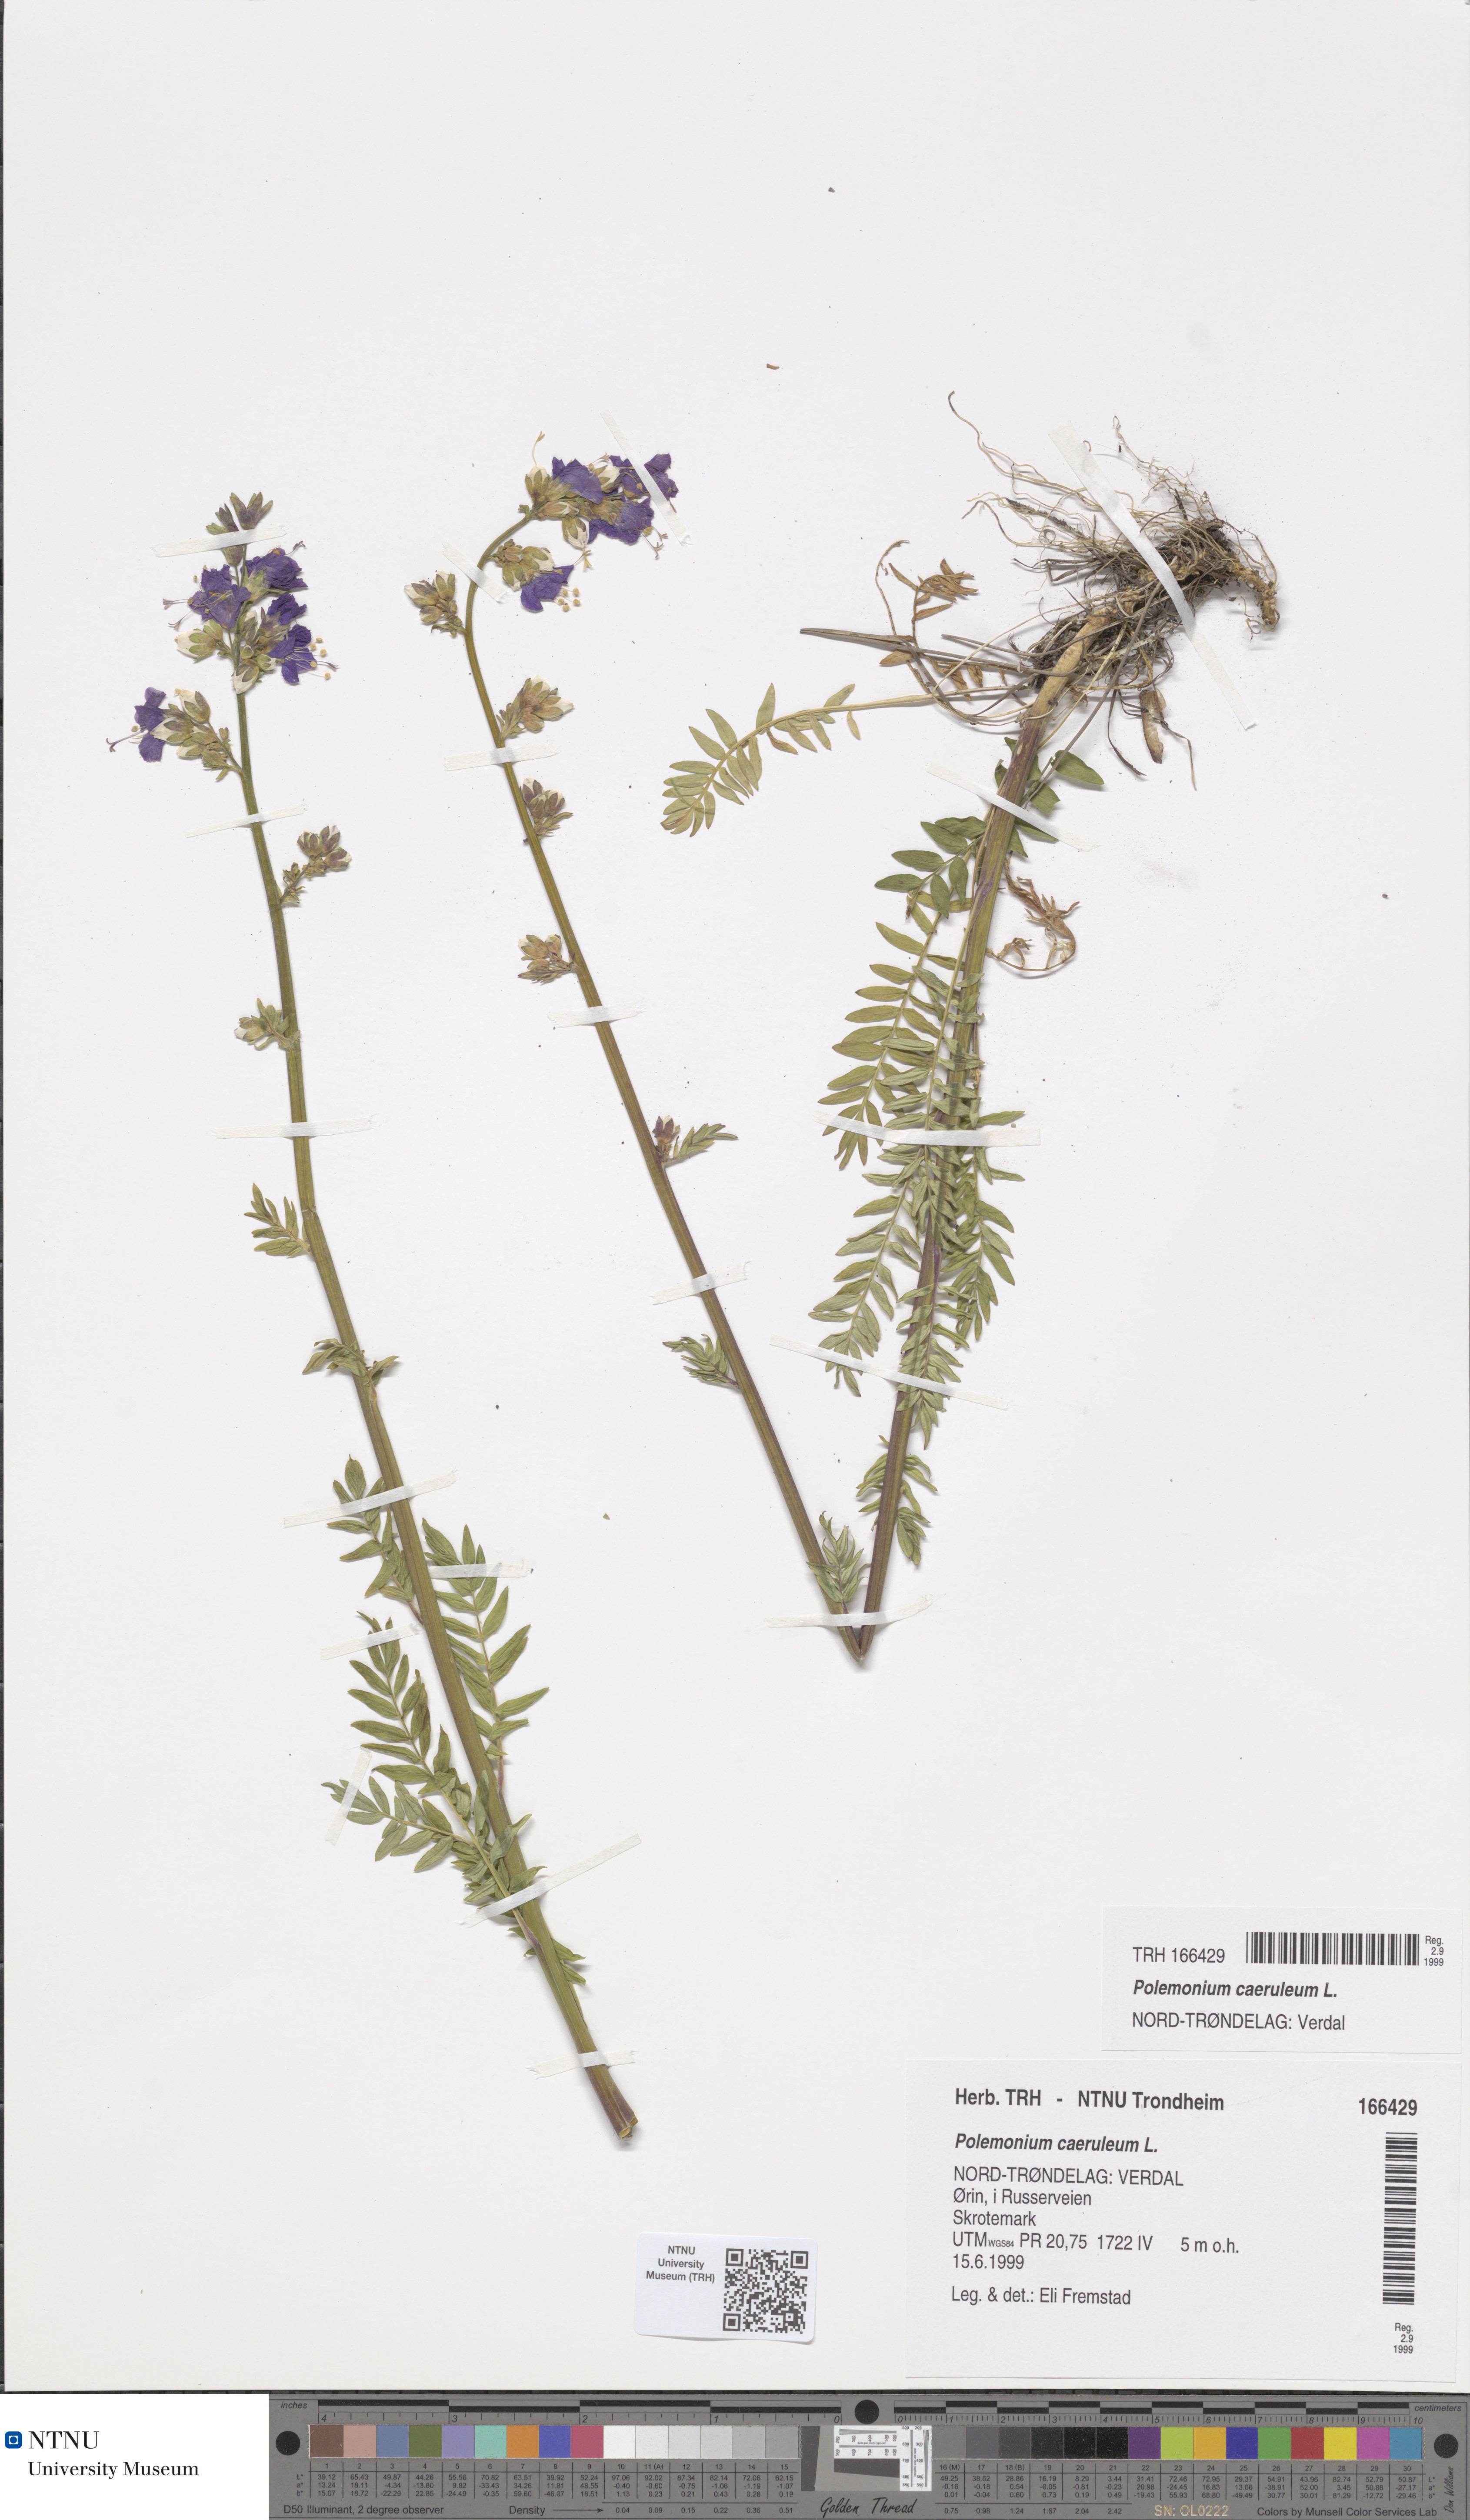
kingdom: Plantae
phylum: Tracheophyta
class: Magnoliopsida
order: Ericales
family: Polemoniaceae
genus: Polemonium
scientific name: Polemonium caeruleum
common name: Jacob's-ladder
